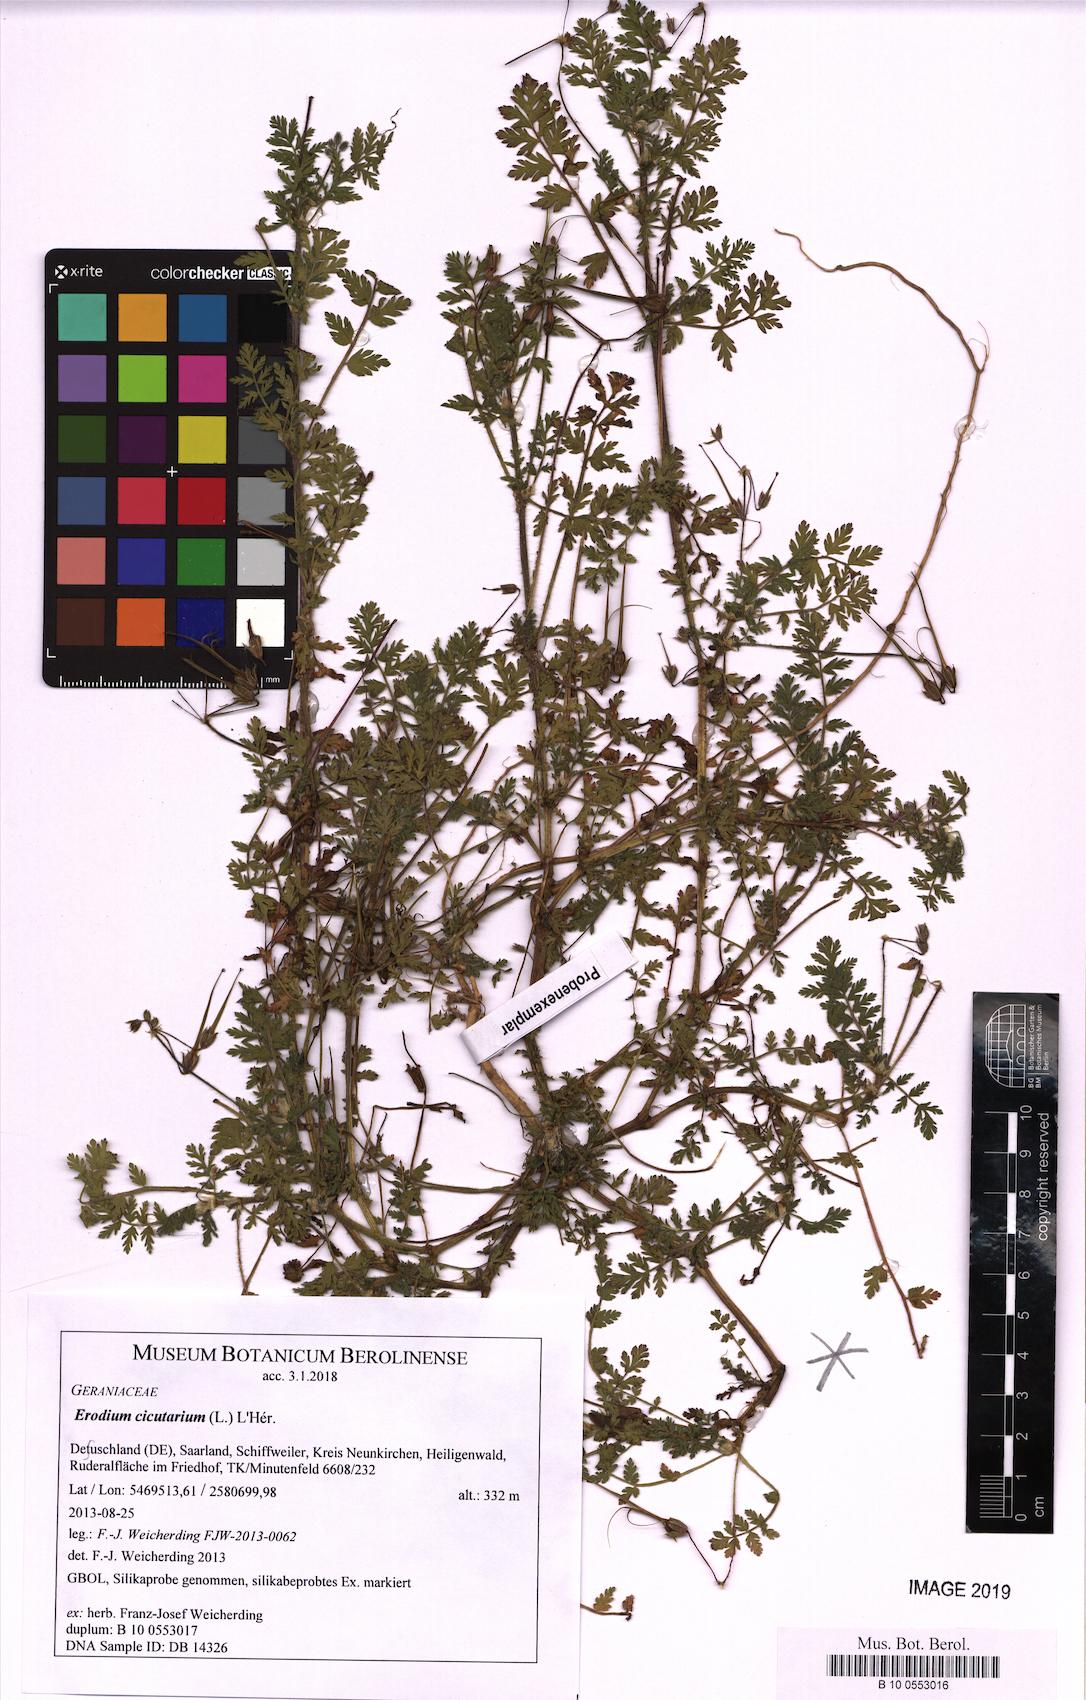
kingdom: Plantae
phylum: Tracheophyta
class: Magnoliopsida
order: Geraniales
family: Geraniaceae
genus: Erodium
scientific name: Erodium cicutarium
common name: Common stork's-bill
